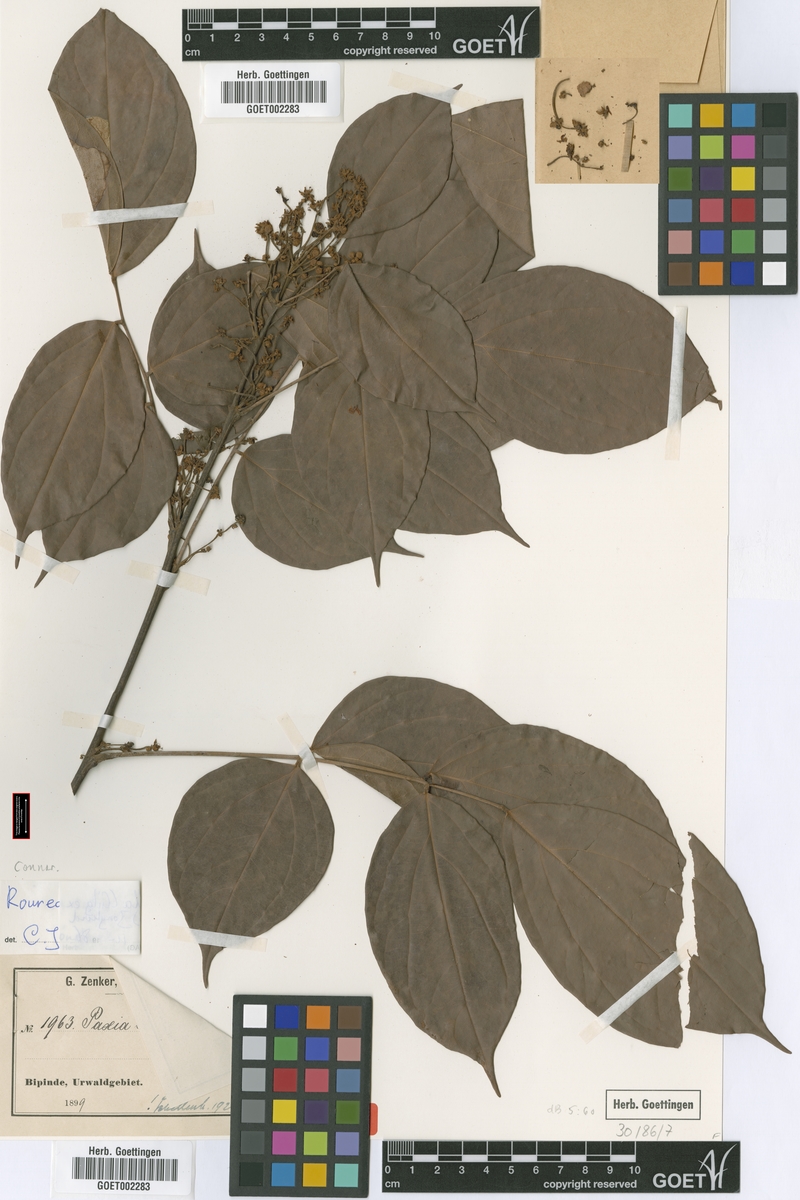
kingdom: Plantae
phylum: Tracheophyta
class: Magnoliopsida
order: Oxalidales
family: Connaraceae
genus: Rourea
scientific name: Rourea calophylla
